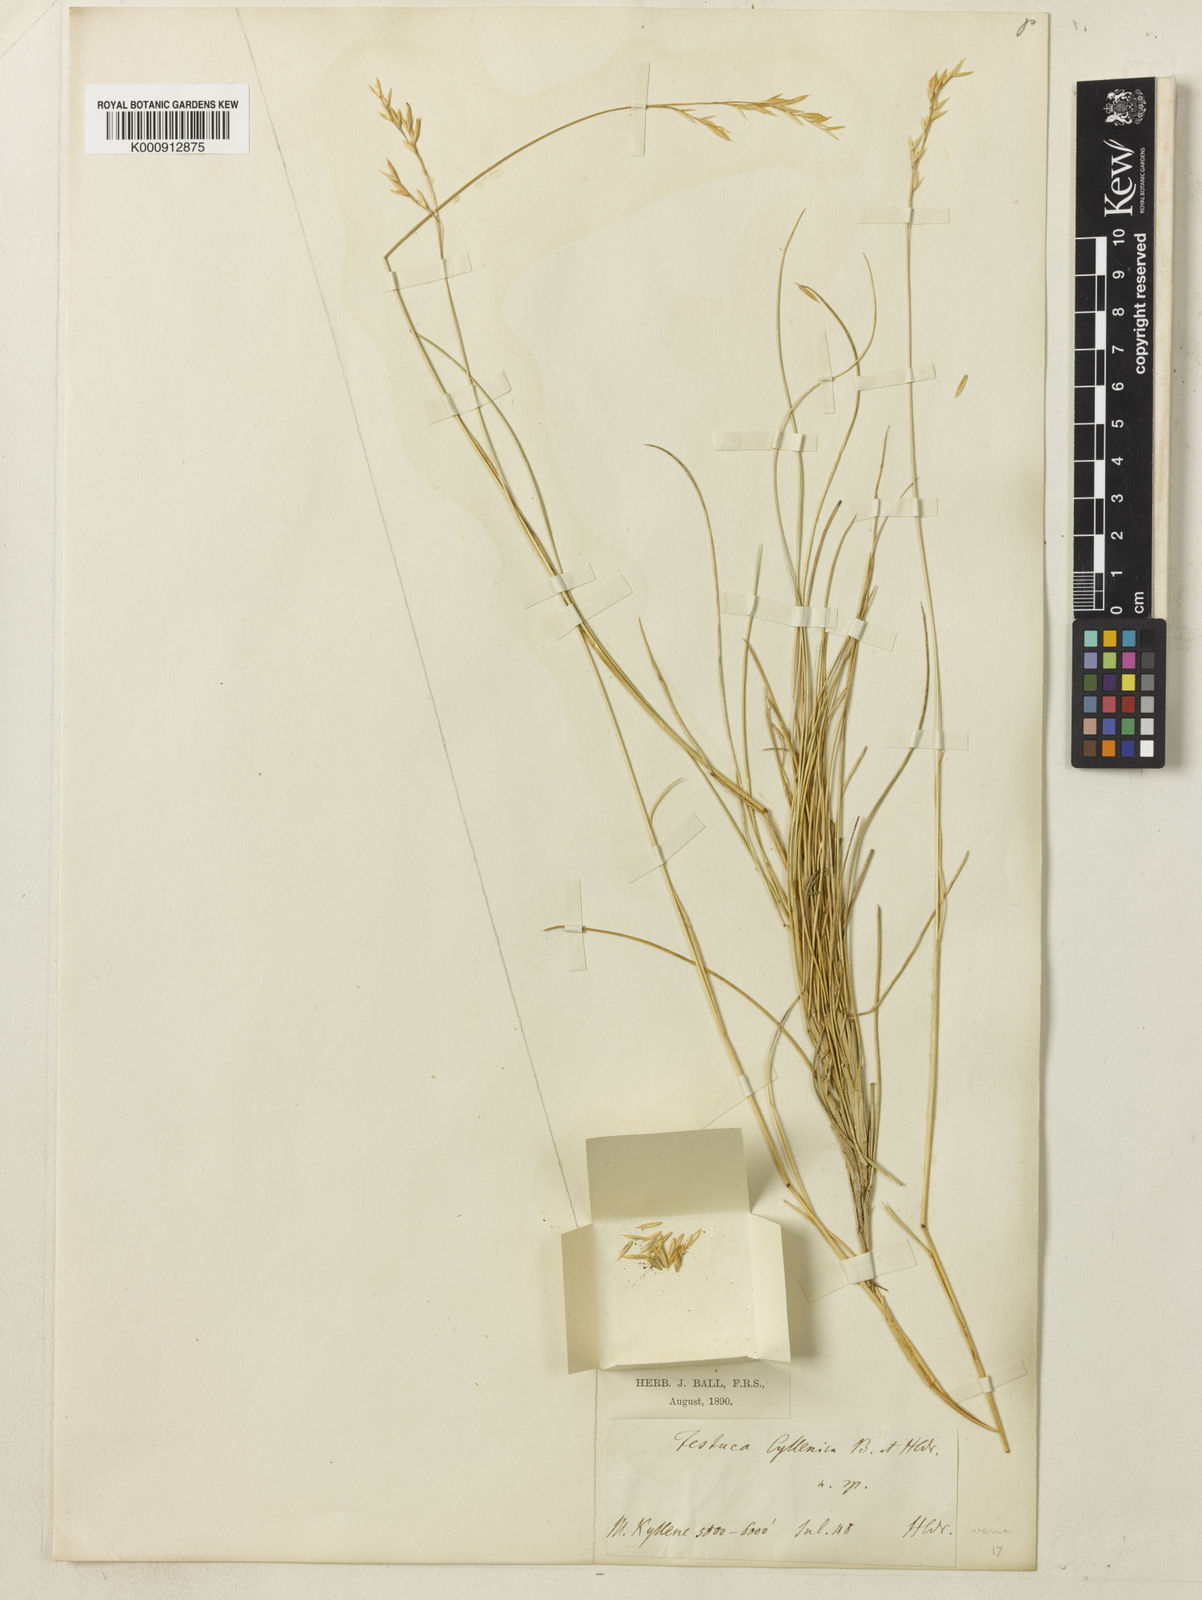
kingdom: Plantae
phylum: Tracheophyta
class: Liliopsida
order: Poales
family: Poaceae
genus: Festuca
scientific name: Festuca cyllenica
